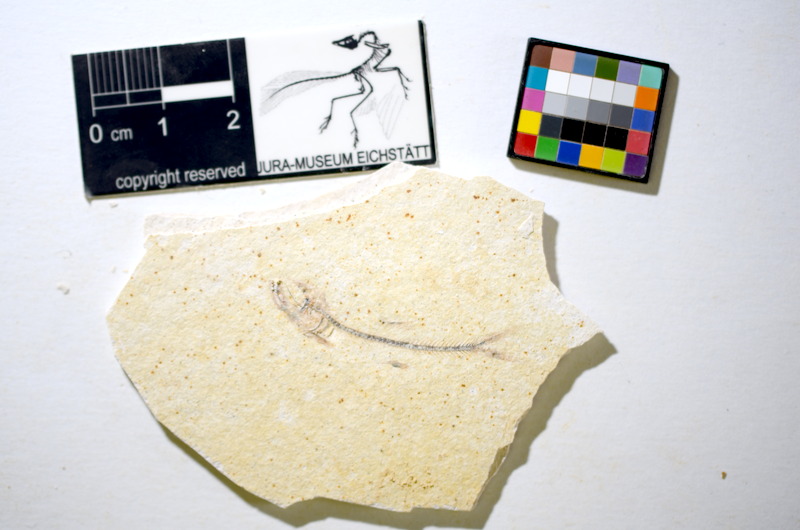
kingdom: Animalia
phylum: Chordata
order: Salmoniformes
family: Orthogonikleithridae
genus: Orthogonikleithrus
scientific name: Orthogonikleithrus hoelli
